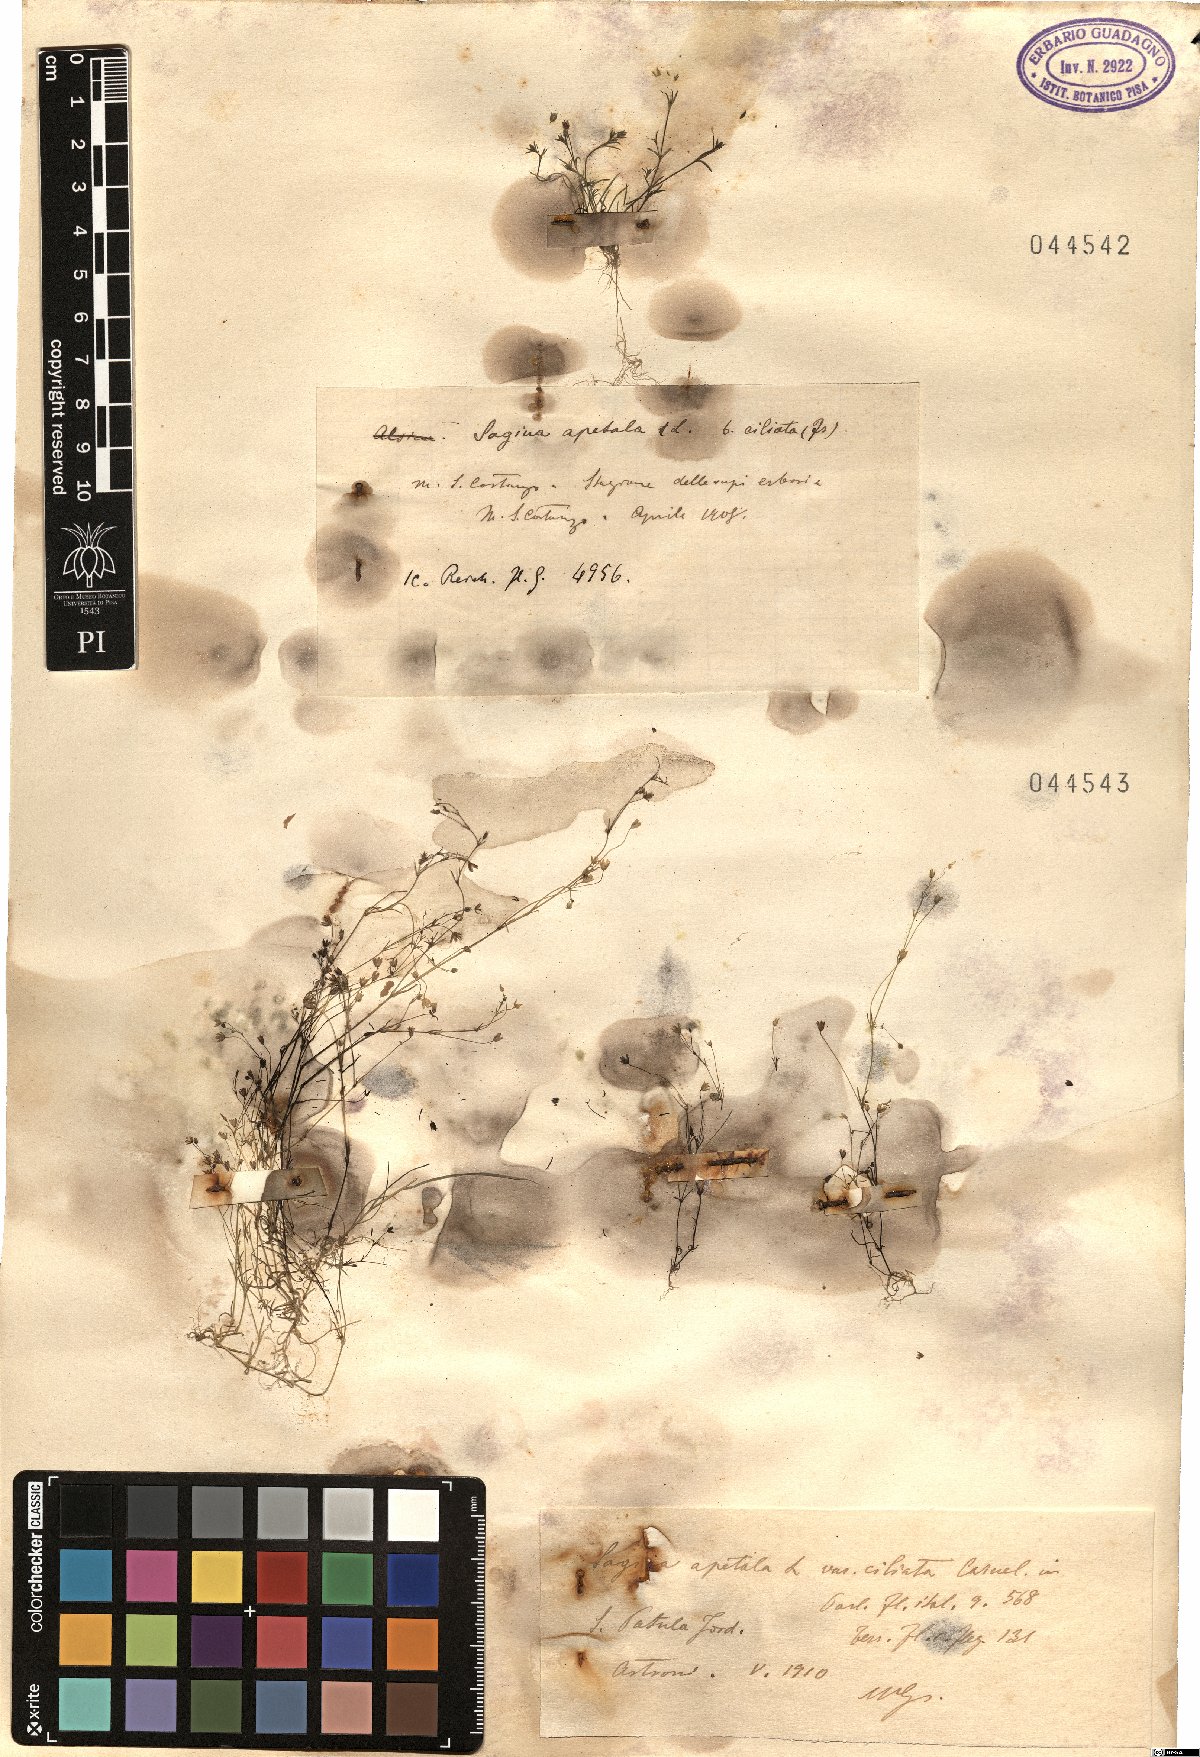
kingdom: Plantae
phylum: Tracheophyta
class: Magnoliopsida
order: Caryophyllales
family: Caryophyllaceae
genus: Sagina
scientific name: Sagina apetala
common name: Annual pearlwort
